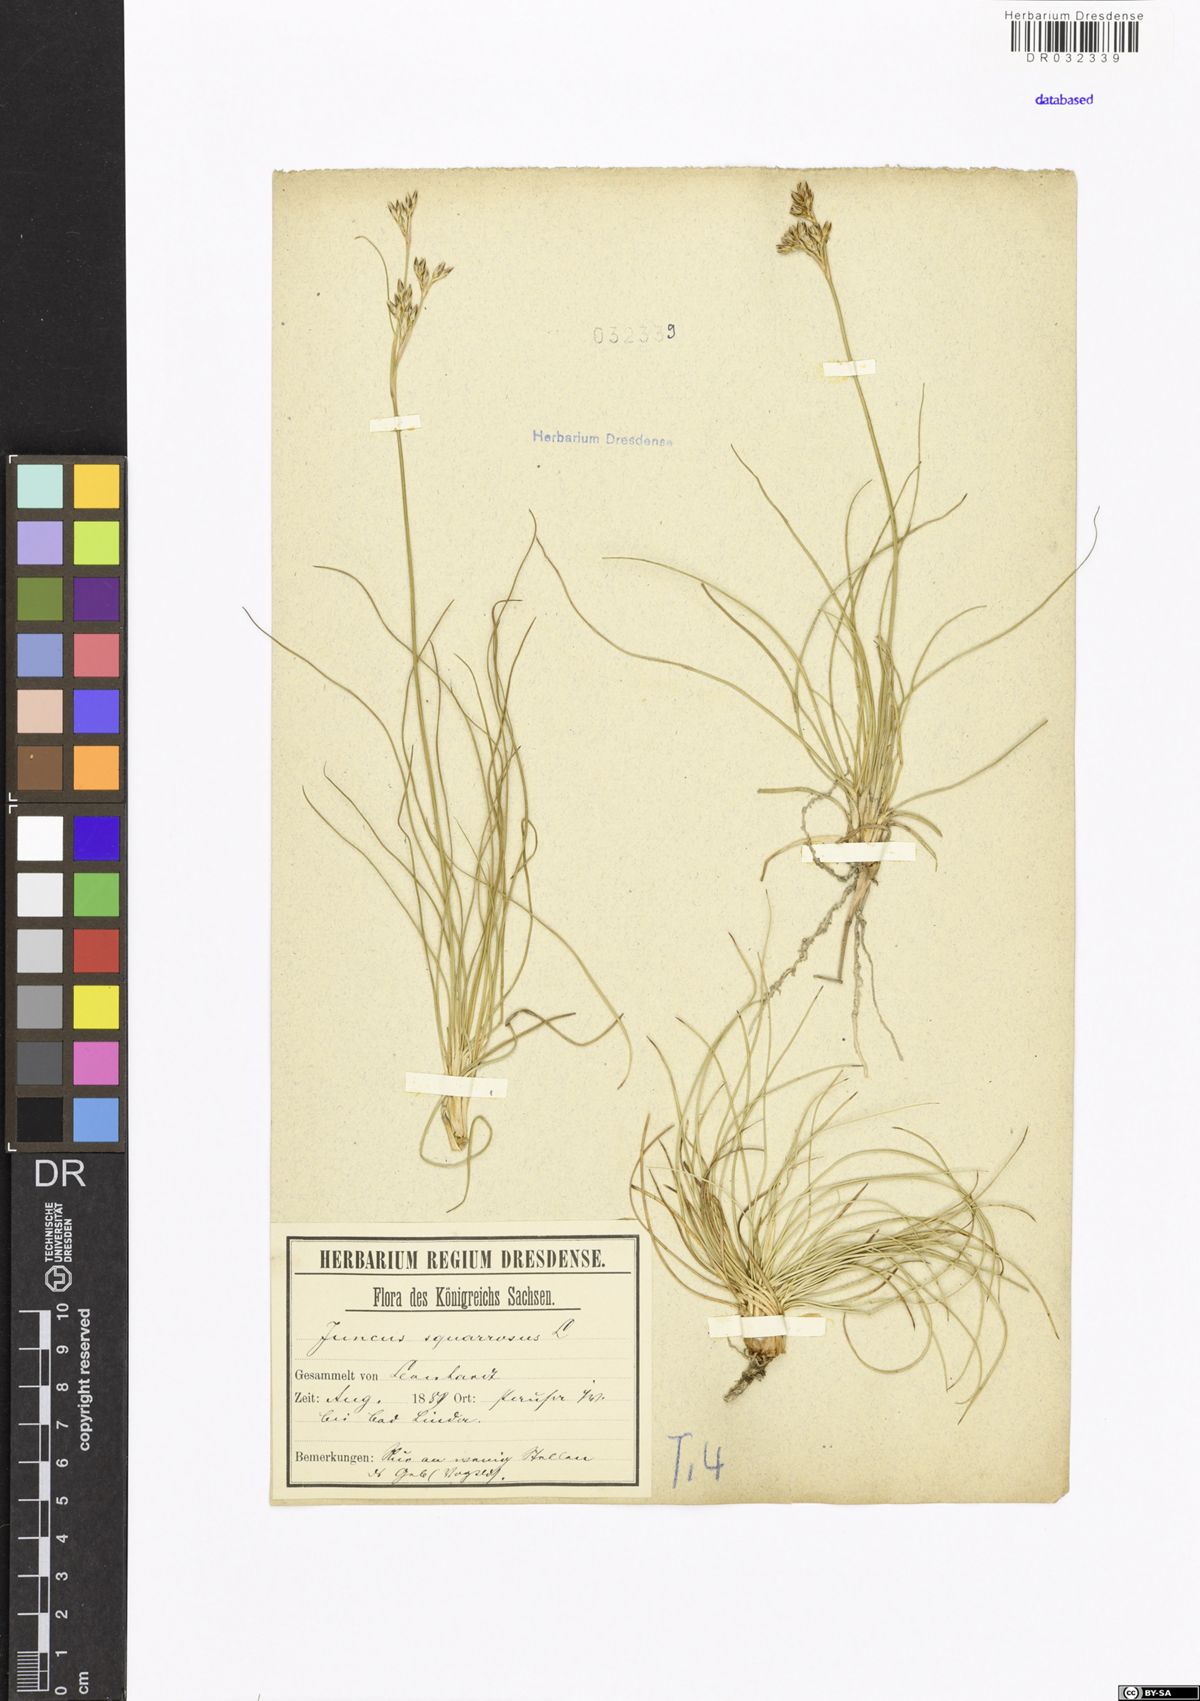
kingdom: Plantae
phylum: Tracheophyta
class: Liliopsida
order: Poales
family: Juncaceae
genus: Juncus
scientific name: Juncus squarrosus
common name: Heath rush
